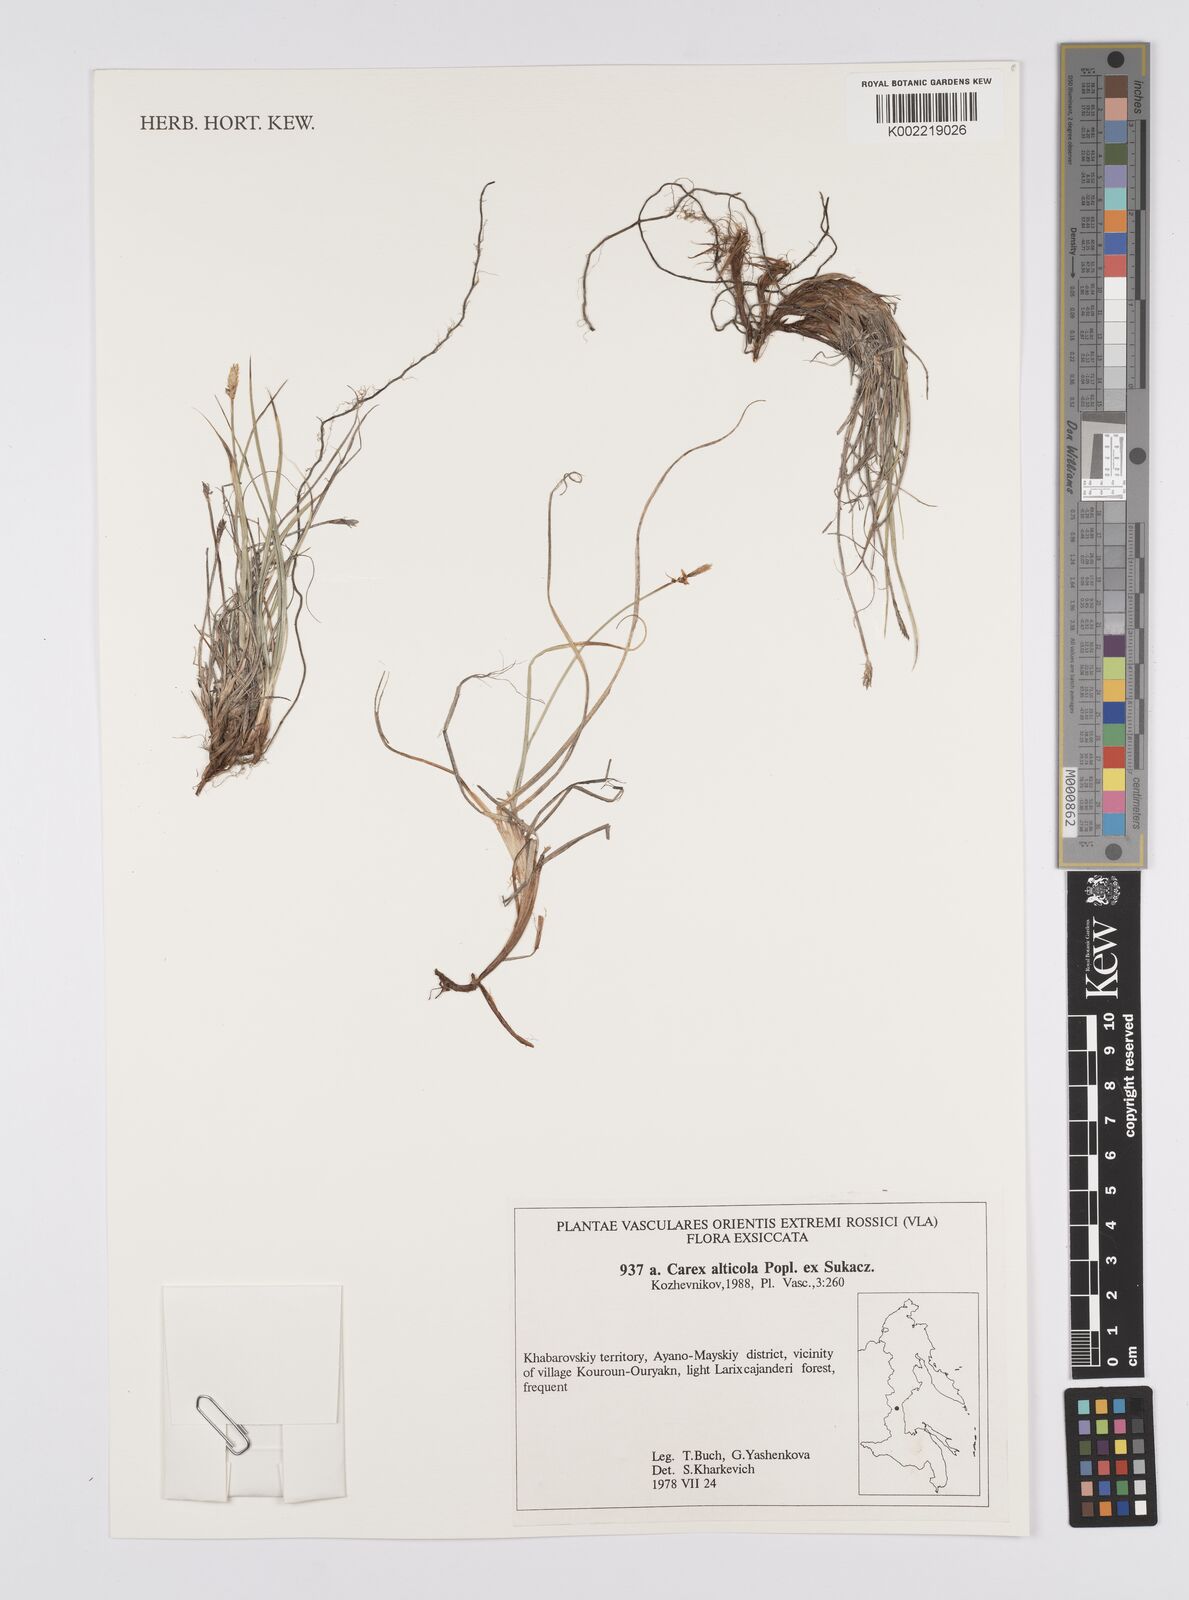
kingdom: Plantae
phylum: Tracheophyta
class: Liliopsida
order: Poales
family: Cyperaceae
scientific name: Cyperaceae
